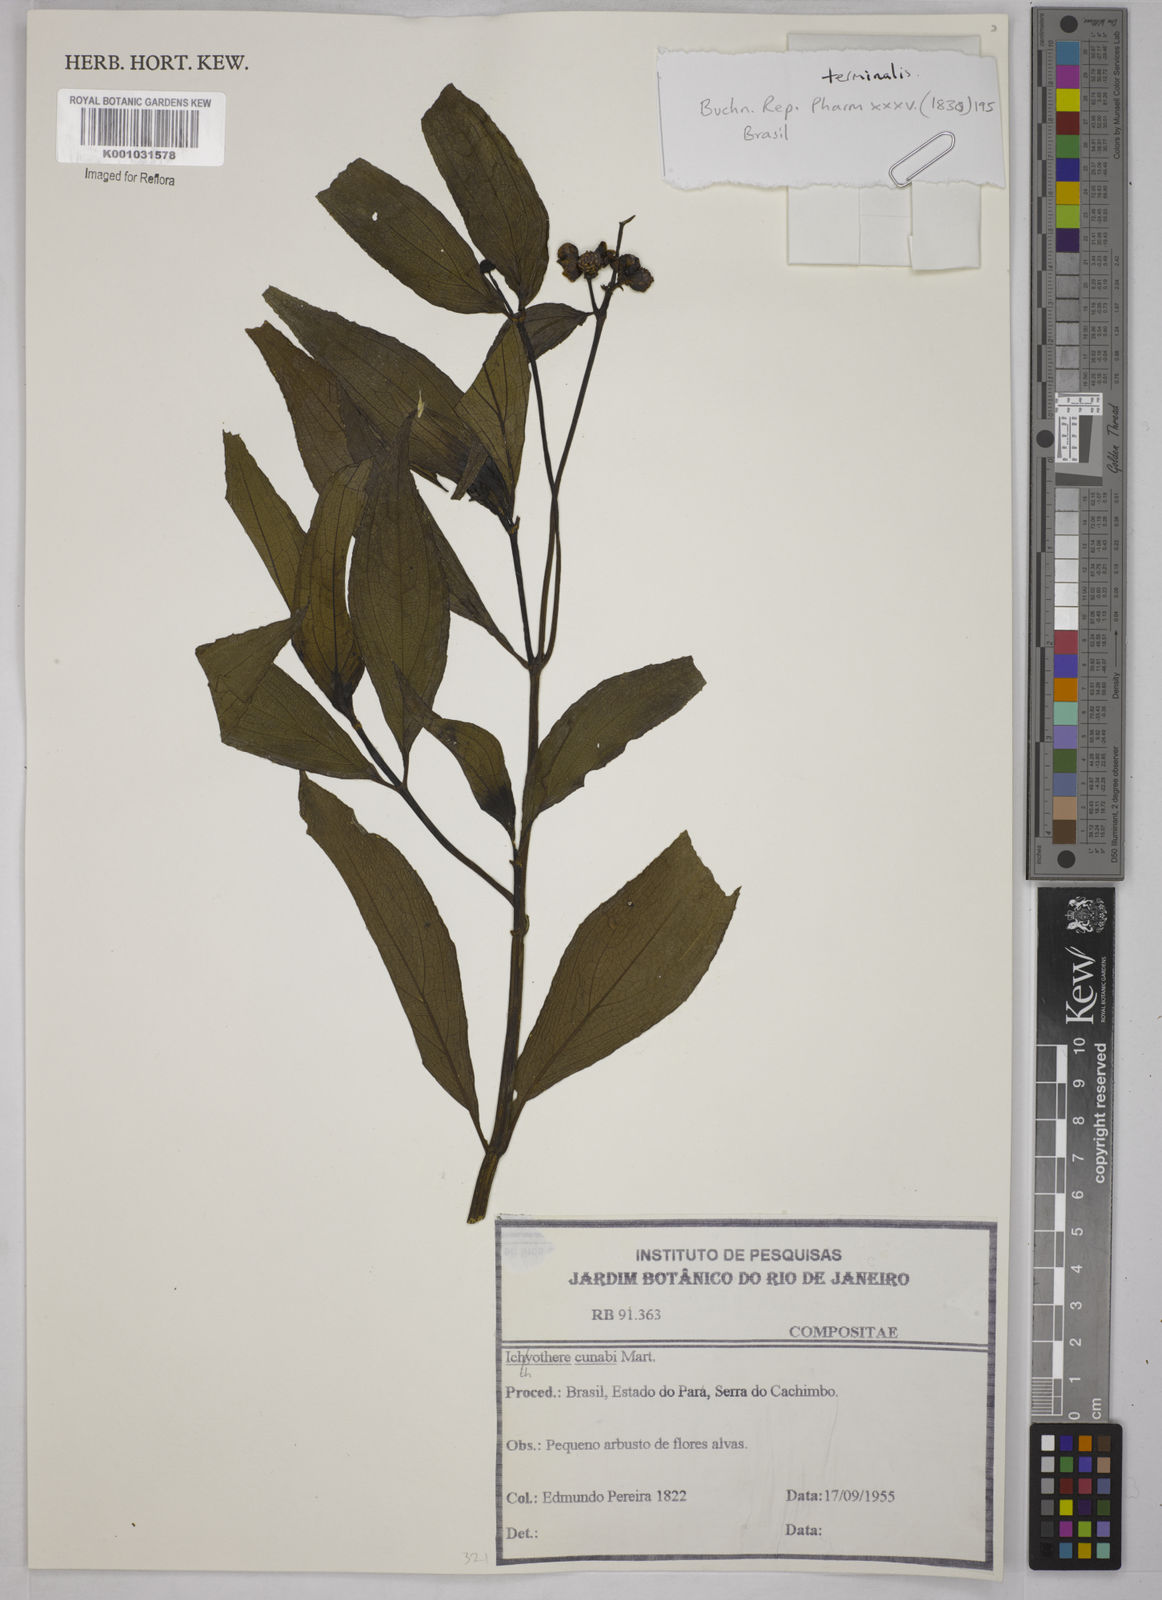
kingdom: Plantae
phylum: Tracheophyta
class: Magnoliopsida
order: Asterales
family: Asteraceae
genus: Ichthyothere
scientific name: Ichthyothere cunabi
